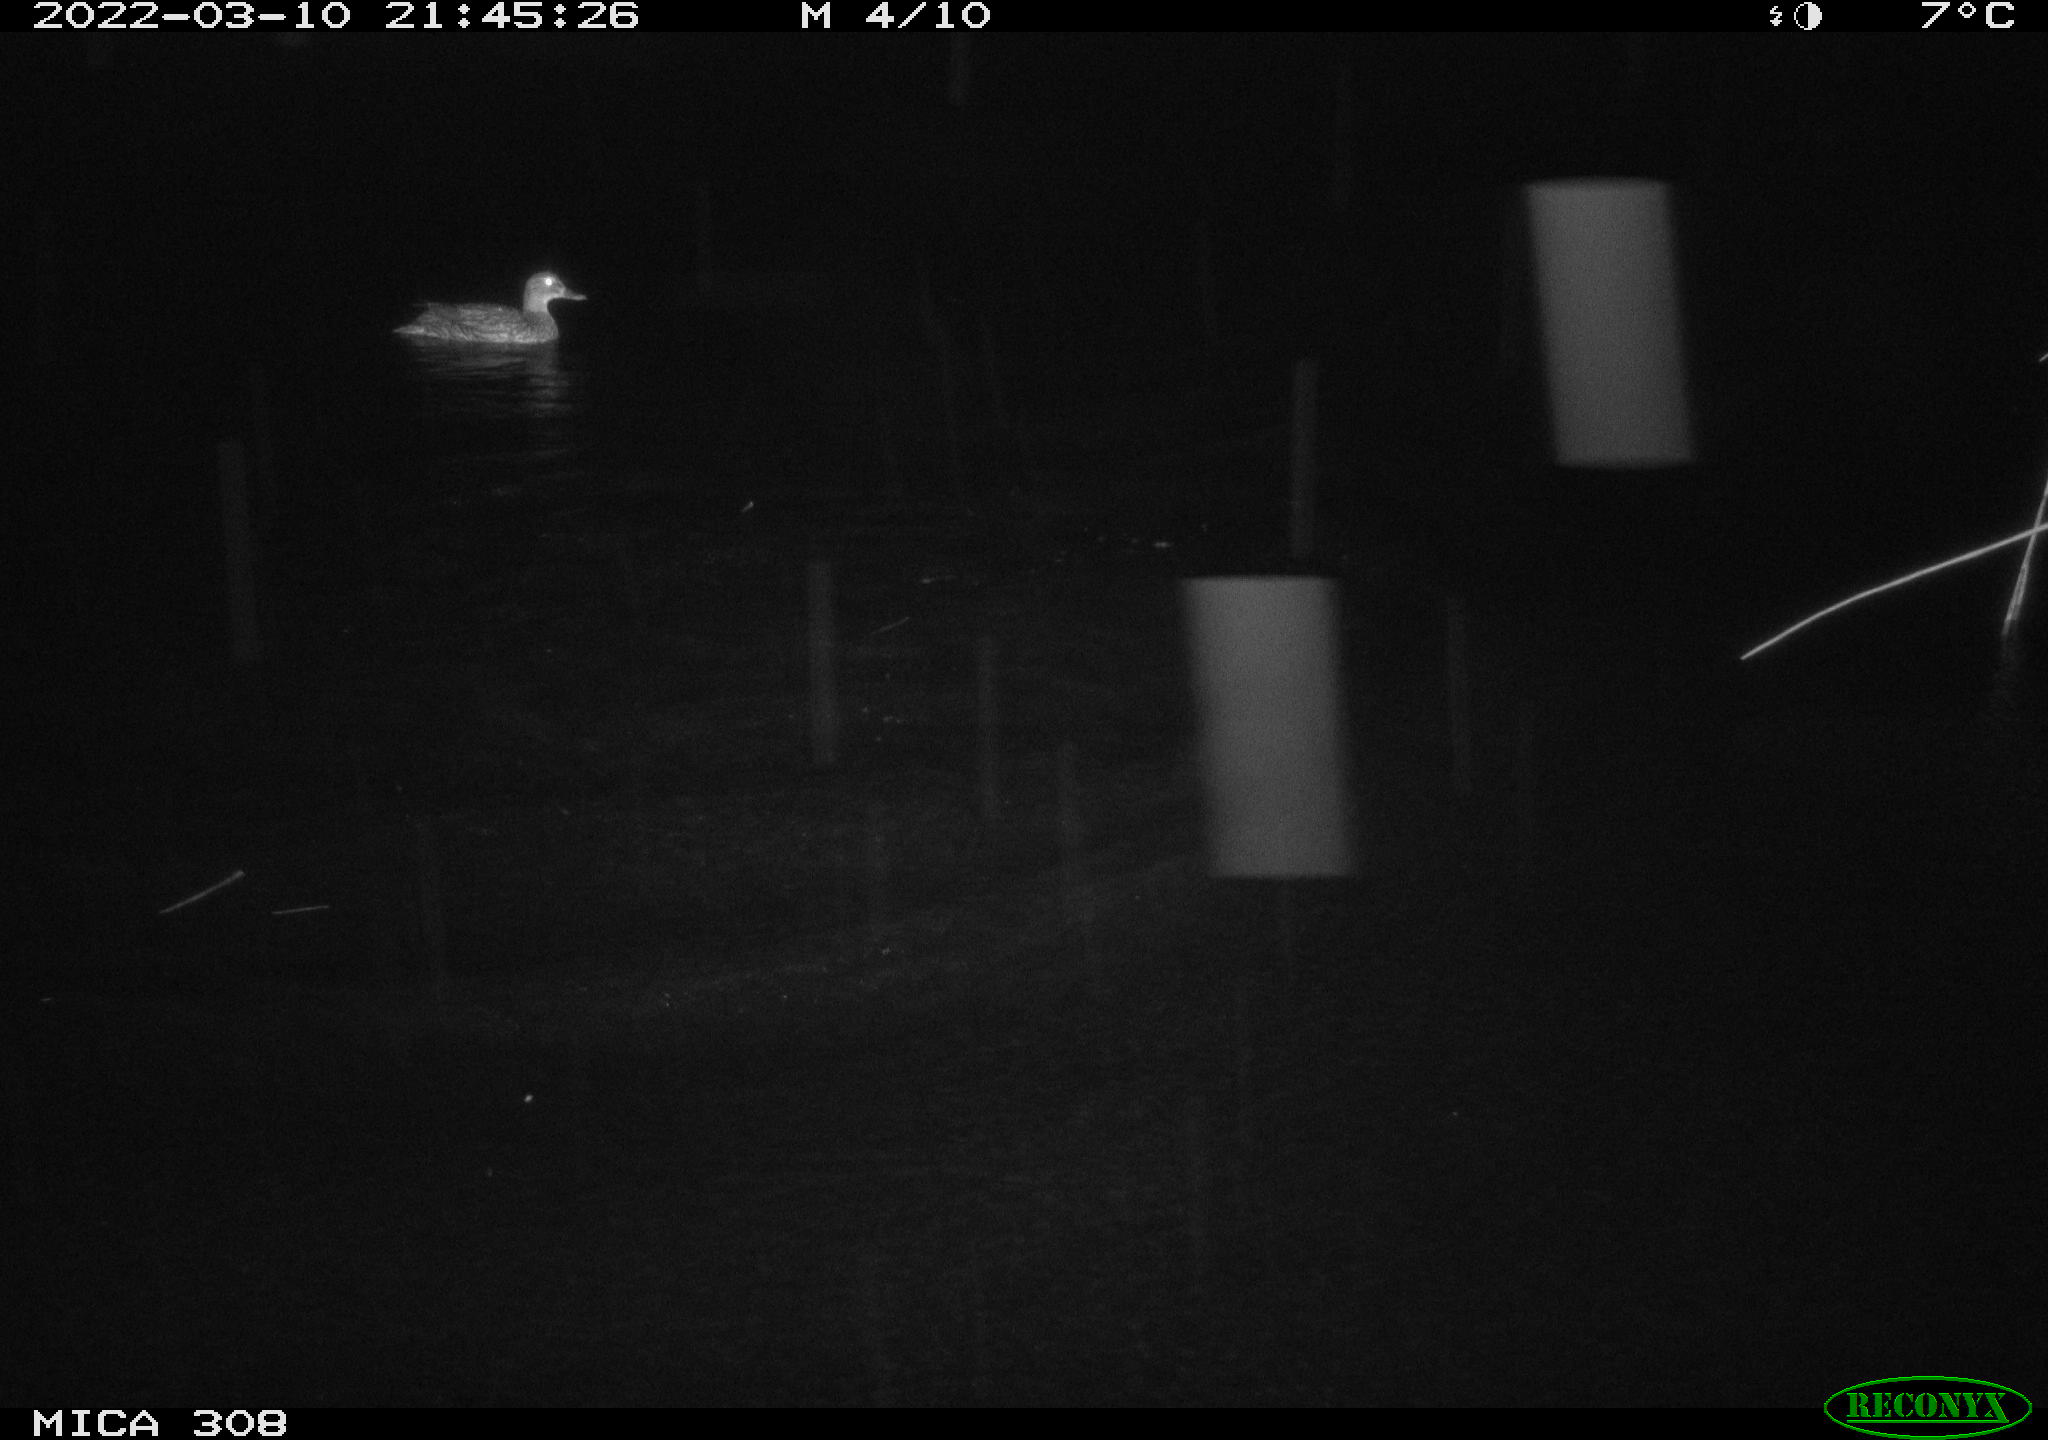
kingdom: Animalia
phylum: Chordata
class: Aves
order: Anseriformes
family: Anatidae
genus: Anas
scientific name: Anas platyrhynchos
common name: Mallard
